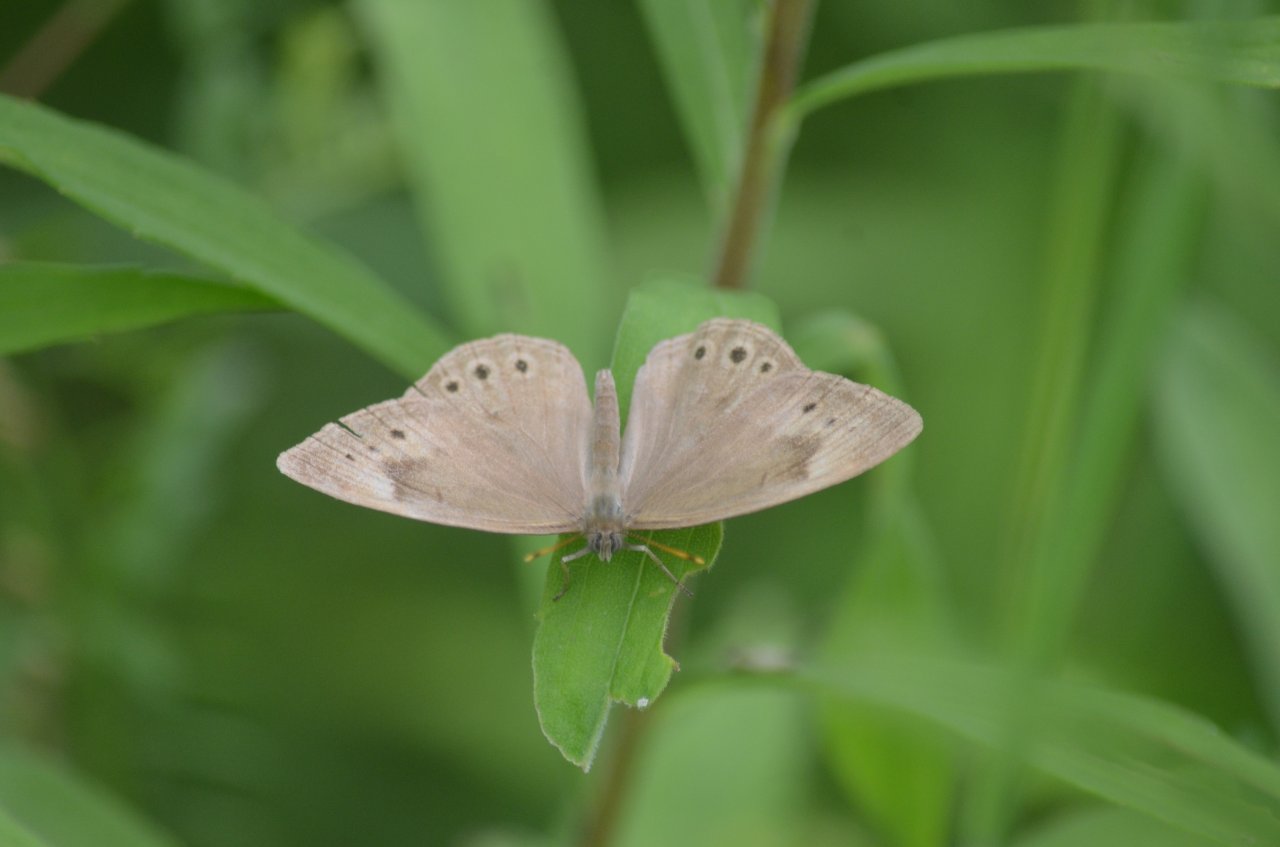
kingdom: Animalia
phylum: Arthropoda
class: Insecta
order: Lepidoptera
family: Nymphalidae
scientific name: Nymphalidae
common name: Brushfoots
